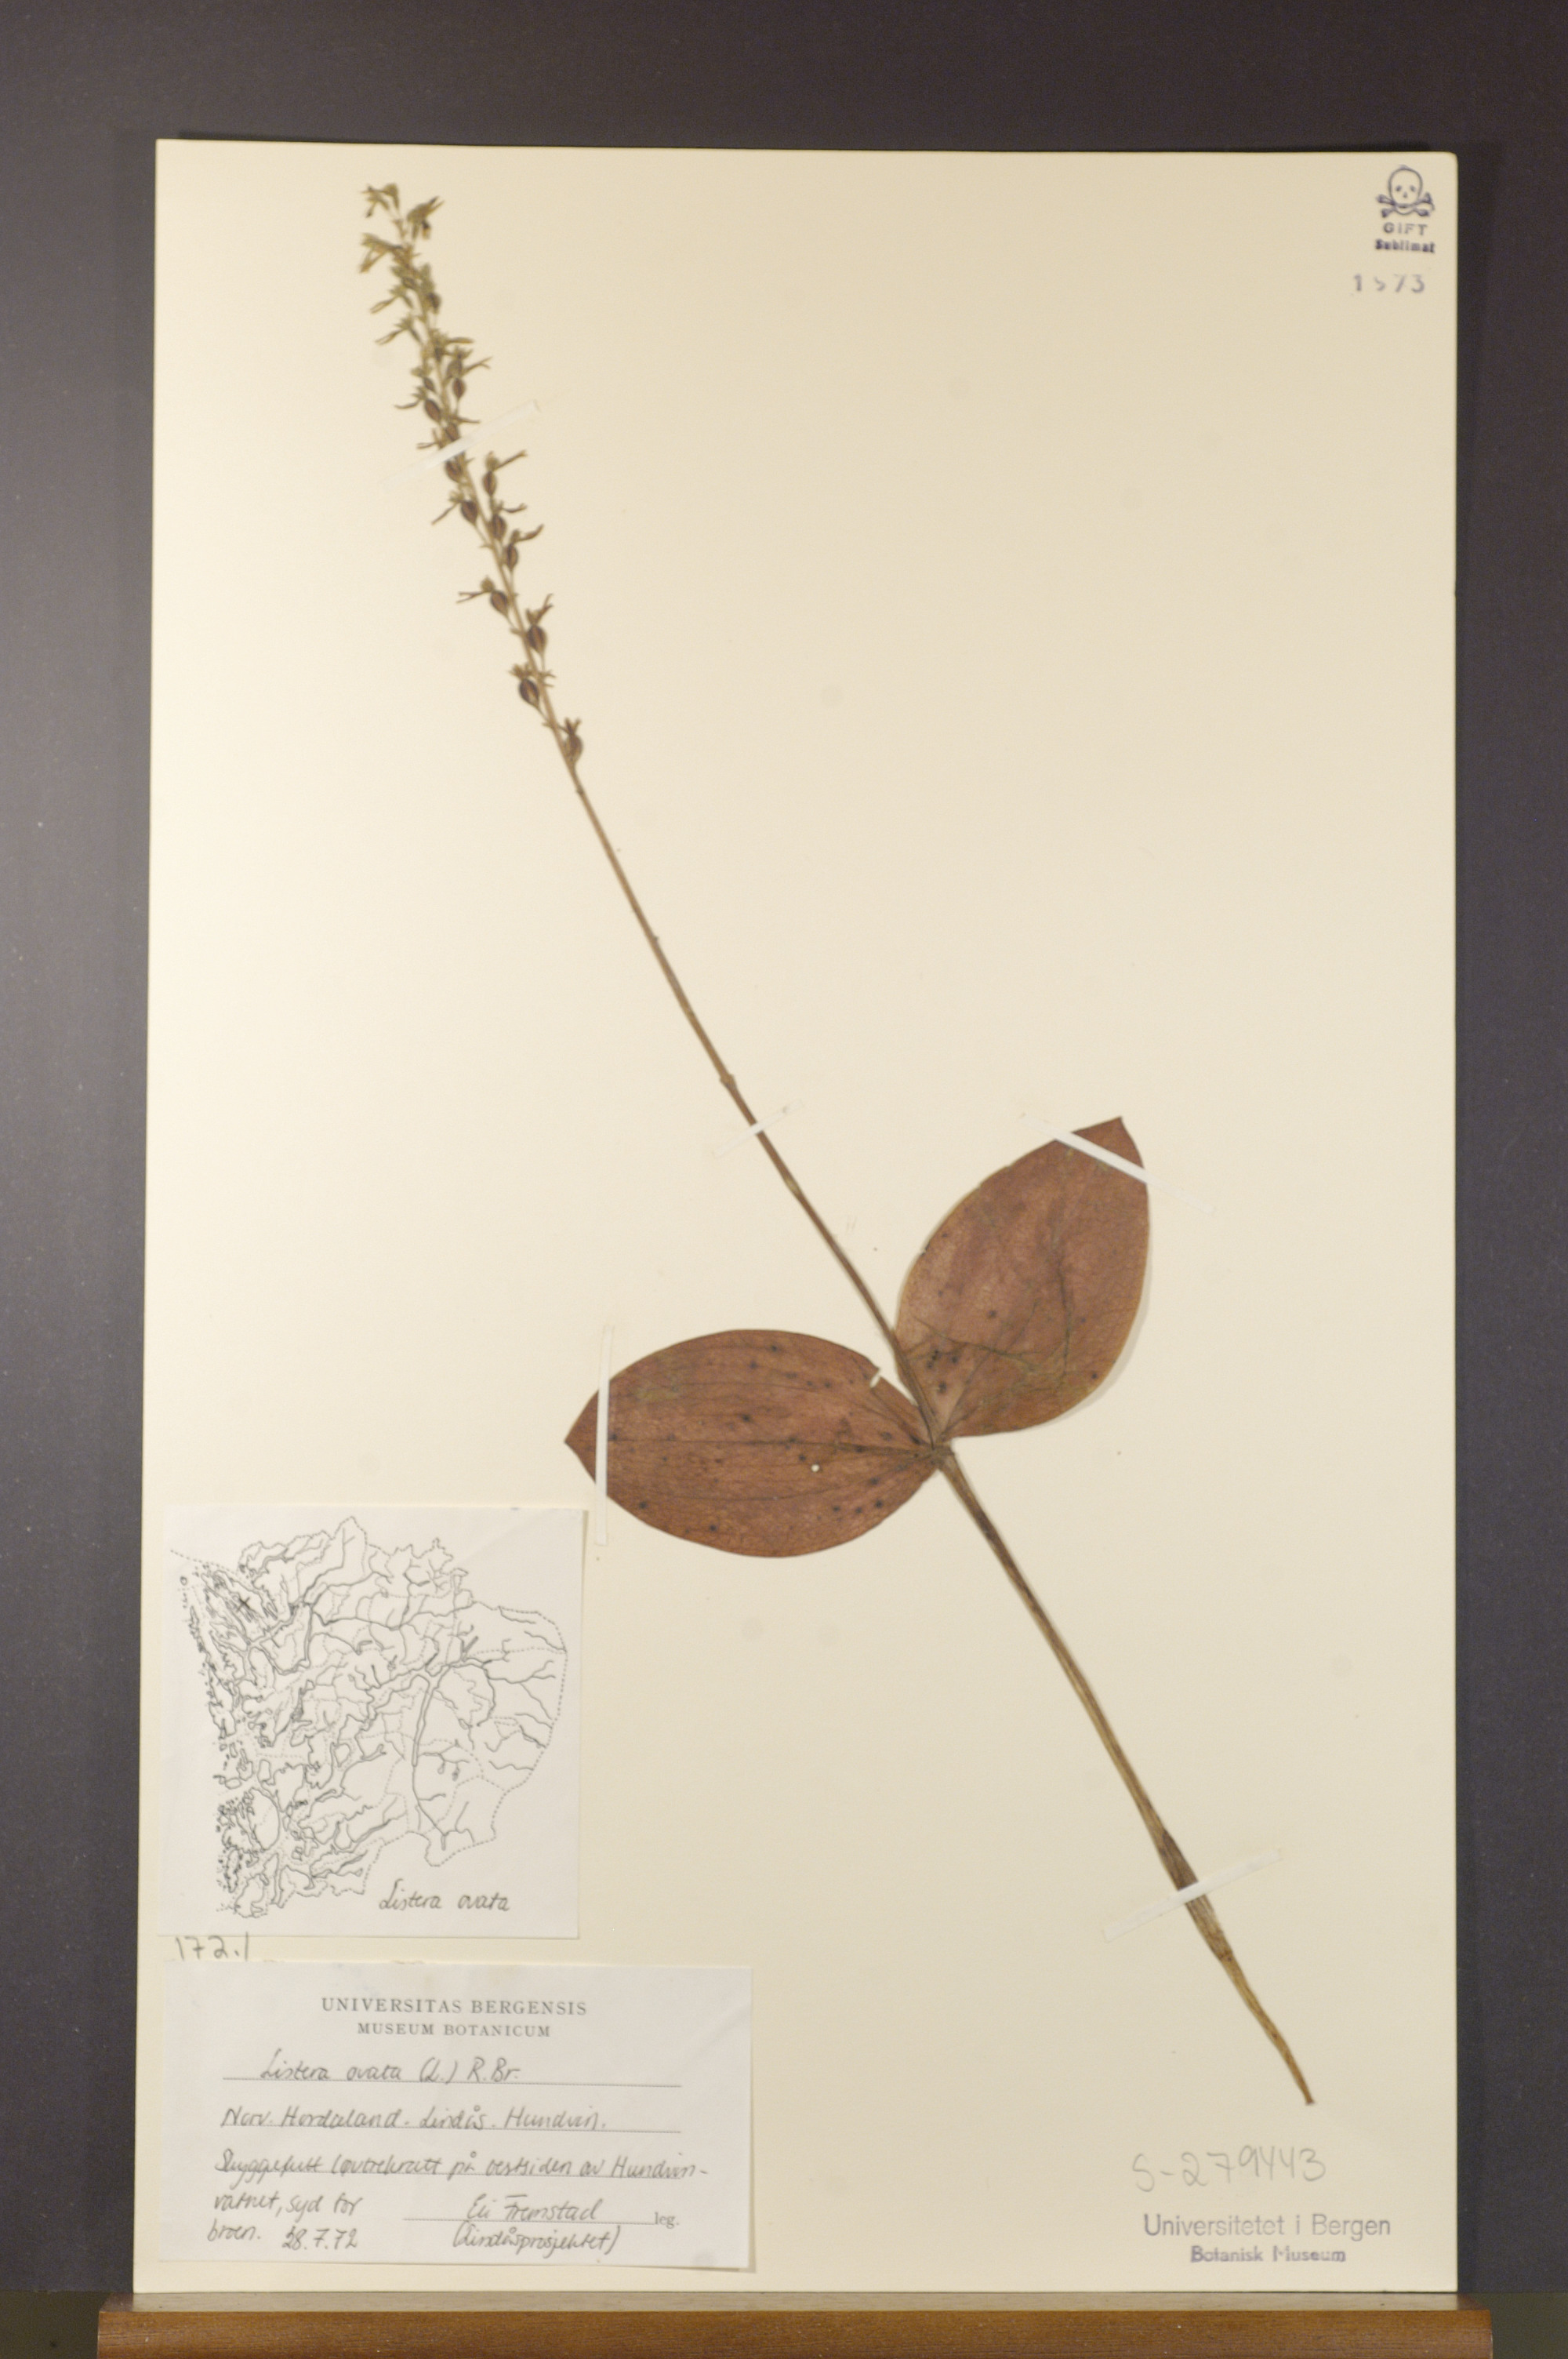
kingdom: Plantae
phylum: Tracheophyta
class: Liliopsida
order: Asparagales
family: Orchidaceae
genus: Neottia
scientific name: Neottia ovata
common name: Common twayblade
